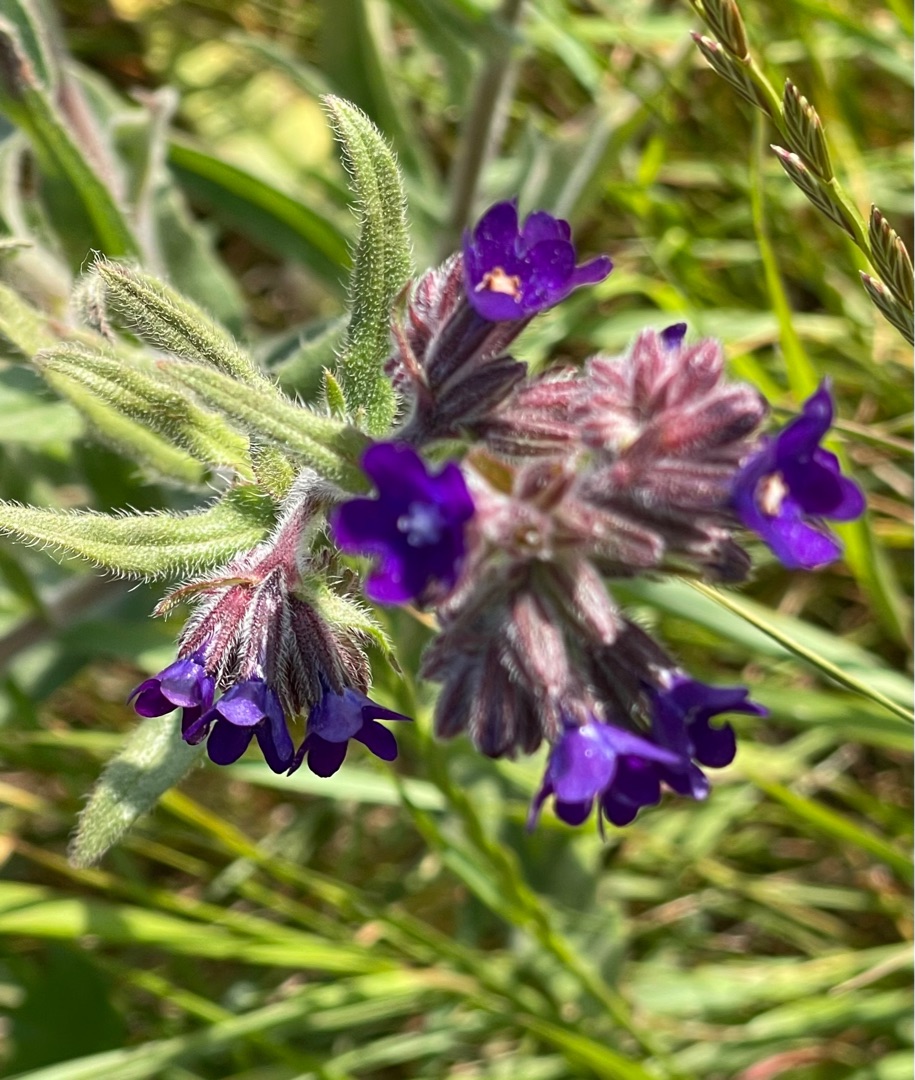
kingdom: Plantae
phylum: Tracheophyta
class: Magnoliopsida
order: Boraginales
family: Boraginaceae
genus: Anchusa
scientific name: Anchusa officinalis
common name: Læge-oksetunge
